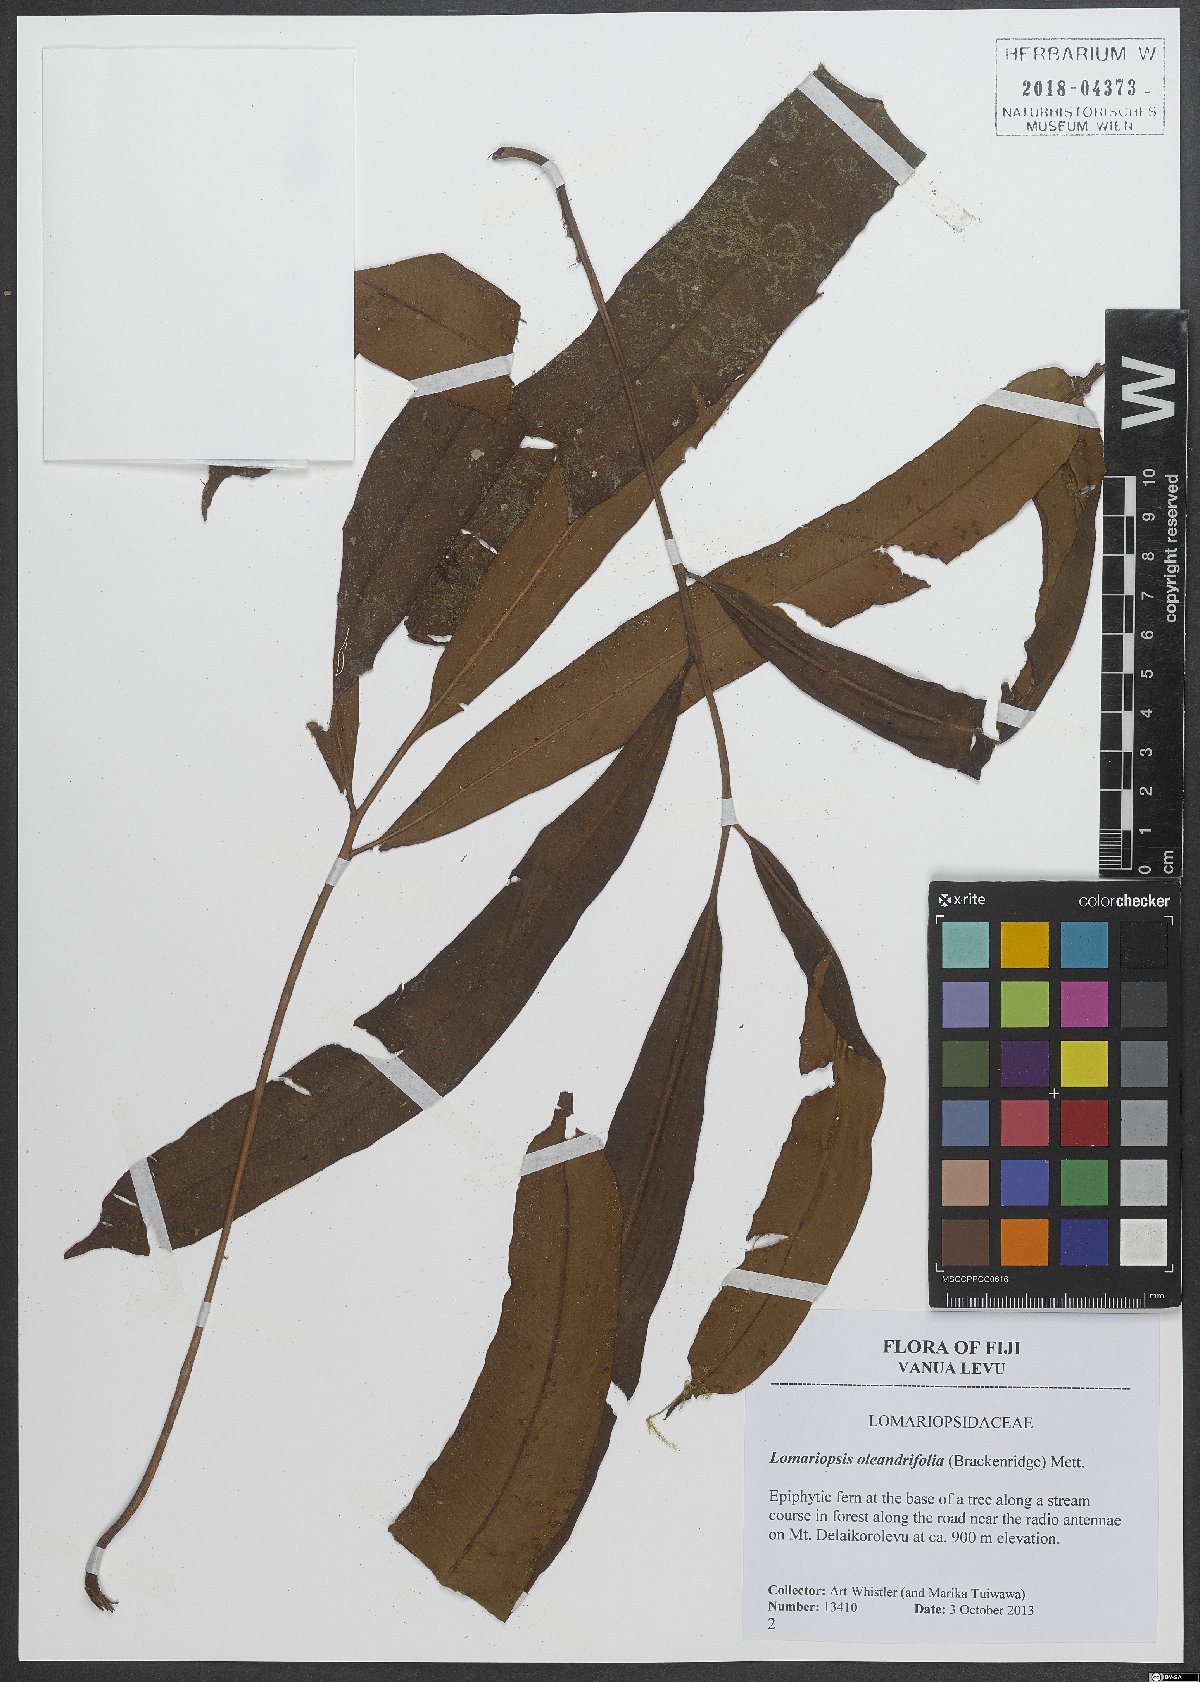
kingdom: Plantae
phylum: Tracheophyta
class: Polypodiopsida
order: Polypodiales
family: Lomariopsidaceae
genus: Lomariopsis
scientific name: Lomariopsis oleandrifolia
